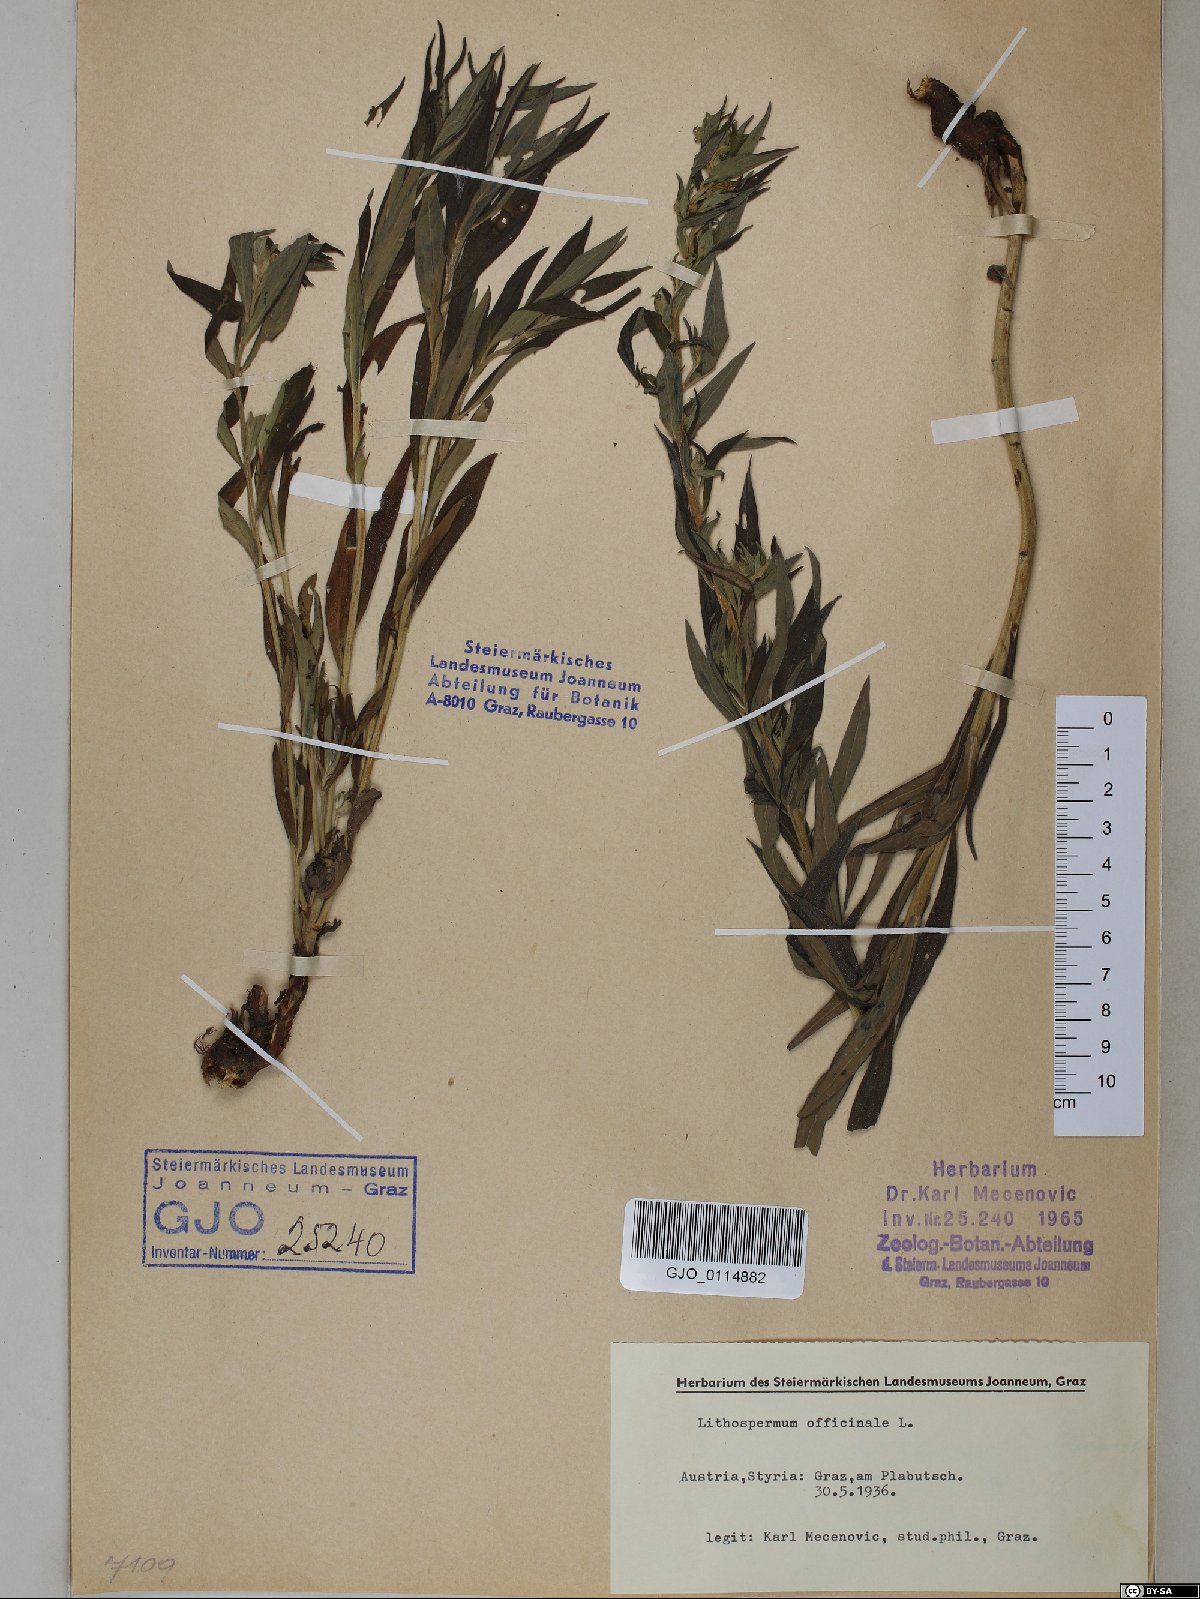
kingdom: Plantae
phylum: Tracheophyta
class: Magnoliopsida
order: Boraginales
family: Boraginaceae
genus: Lithospermum
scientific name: Lithospermum officinale
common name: Common gromwell
